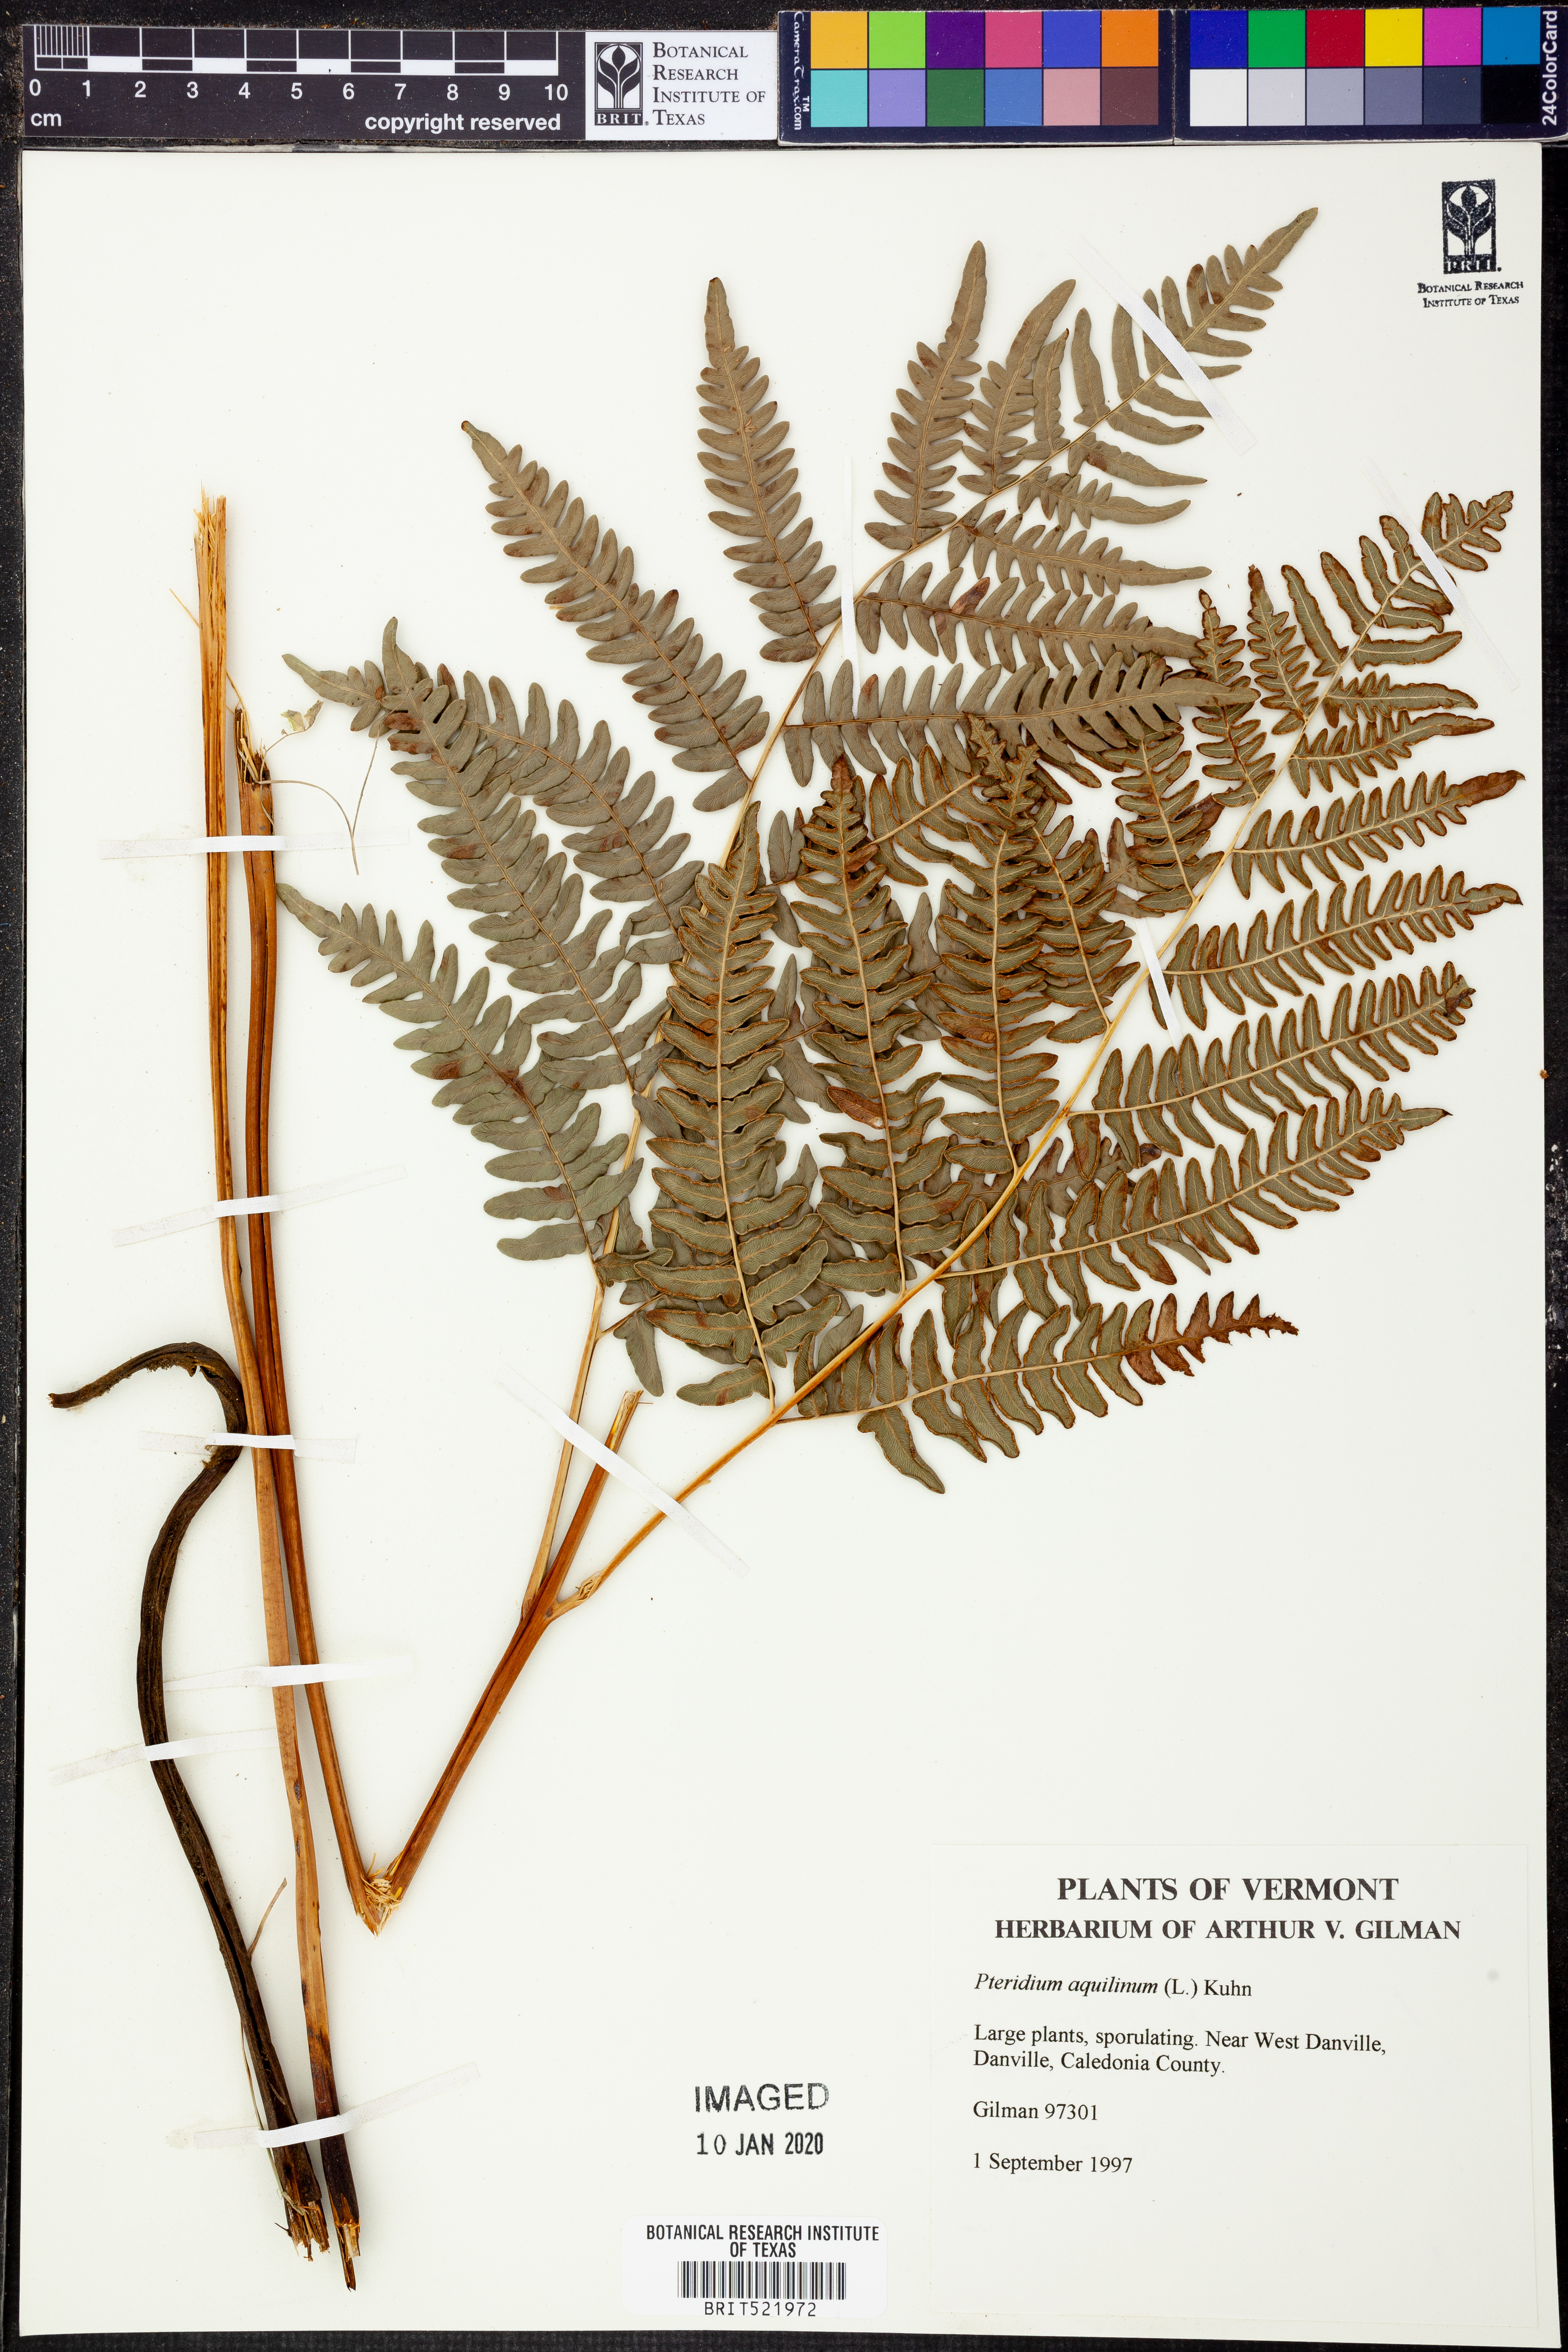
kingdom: Plantae
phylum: Tracheophyta
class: Polypodiopsida
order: Polypodiales
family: Dennstaedtiaceae
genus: Pteridium
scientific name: Pteridium aquilinum
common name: Bracken
